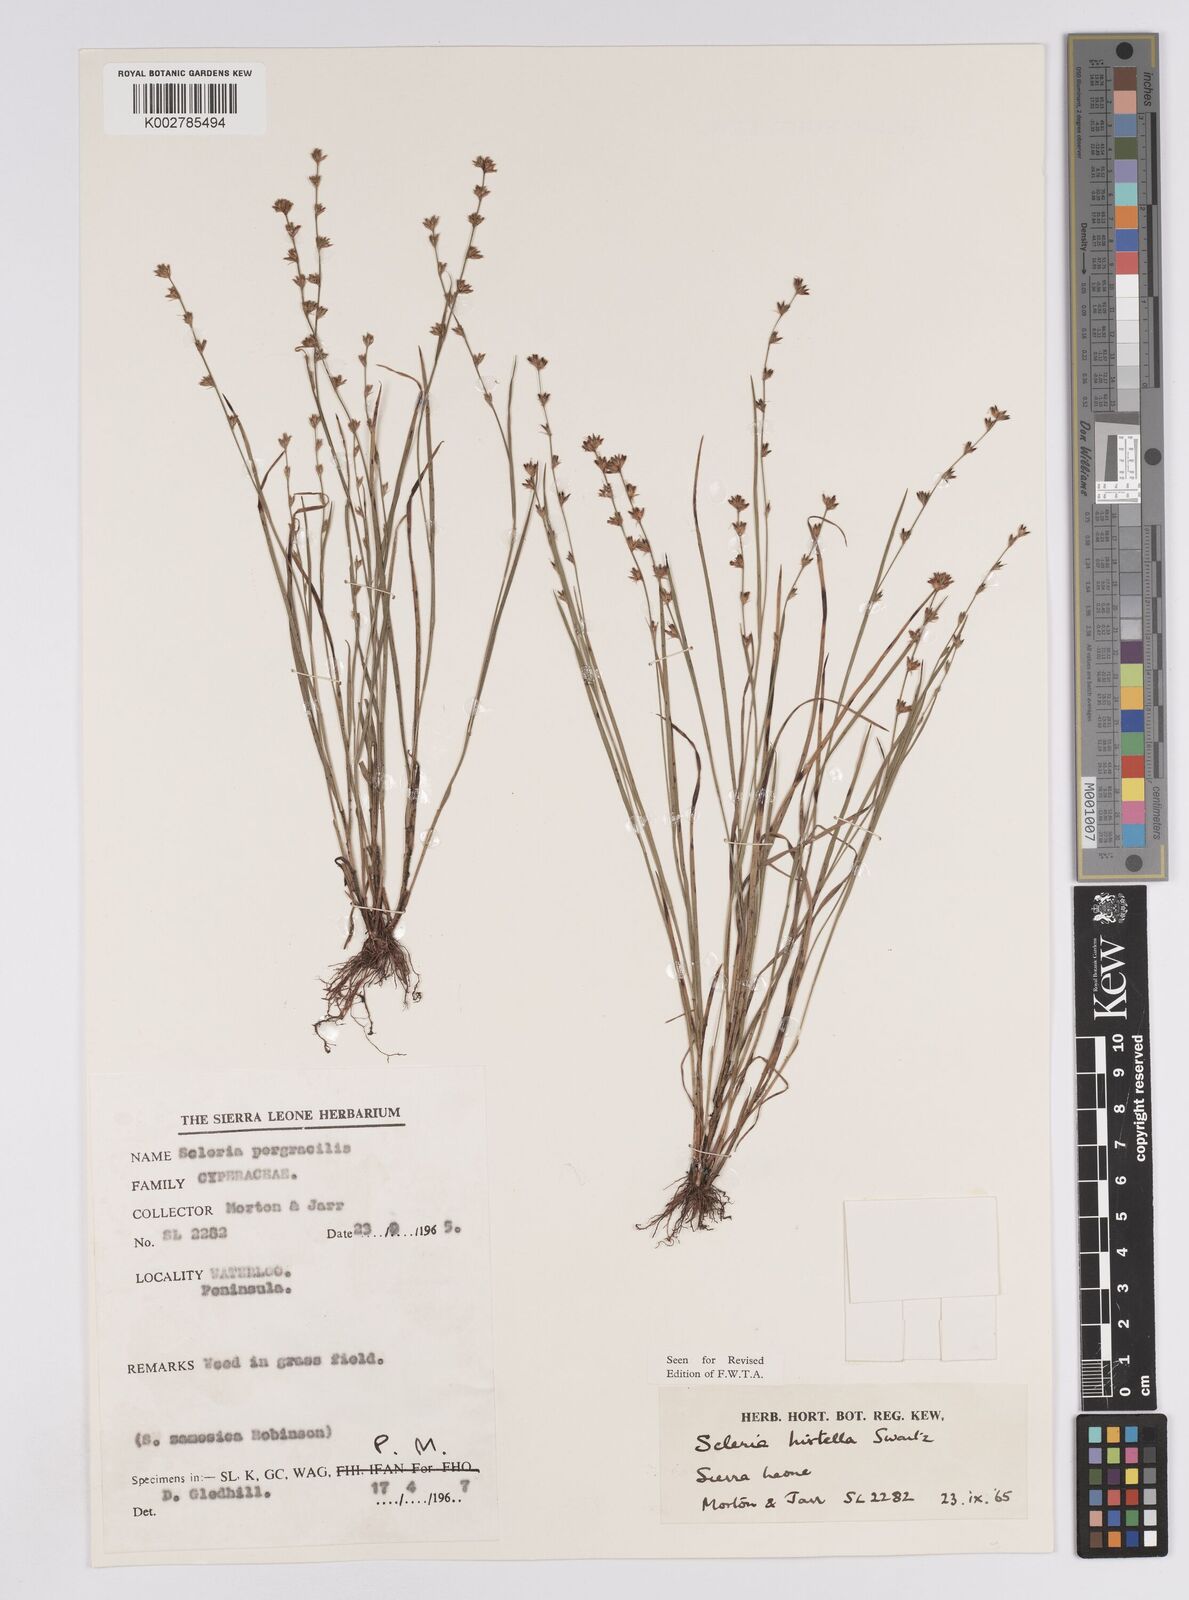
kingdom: Plantae
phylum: Tracheophyta
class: Liliopsida
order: Poales
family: Cyperaceae
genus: Scleria
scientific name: Scleria tricholepis
